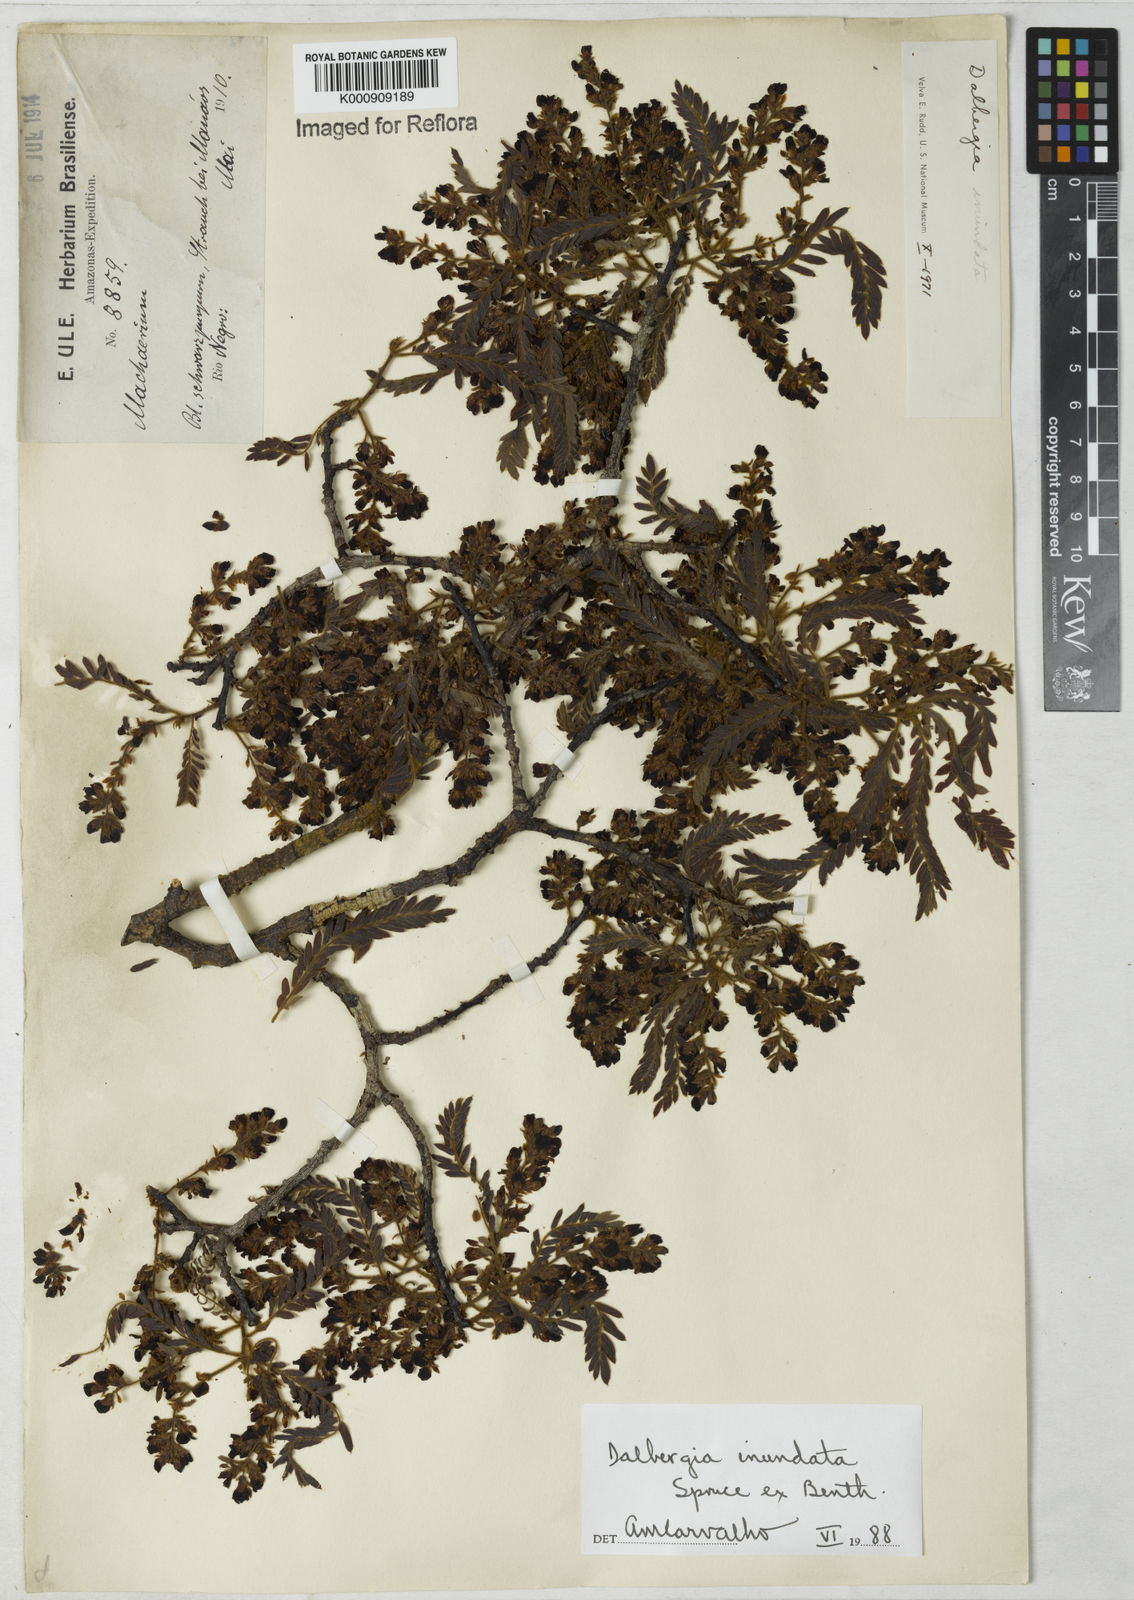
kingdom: Plantae
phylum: Tracheophyta
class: Magnoliopsida
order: Fabales
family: Fabaceae
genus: Dalbergia
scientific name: Dalbergia inundata
